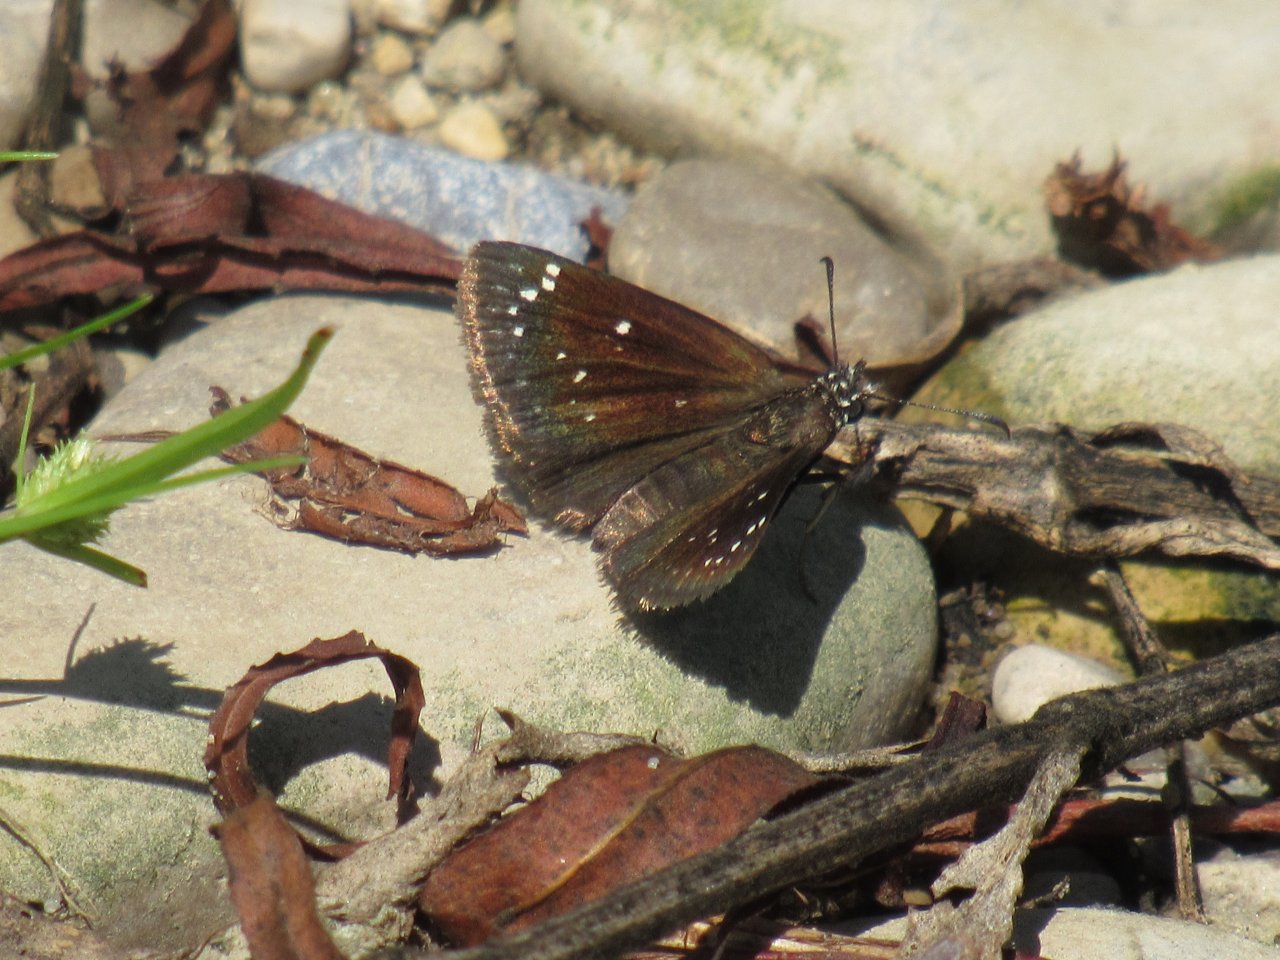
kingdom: Animalia
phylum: Arthropoda
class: Insecta
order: Lepidoptera
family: Hesperiidae
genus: Pholisora
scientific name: Pholisora catullus
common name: Common Sootywing
